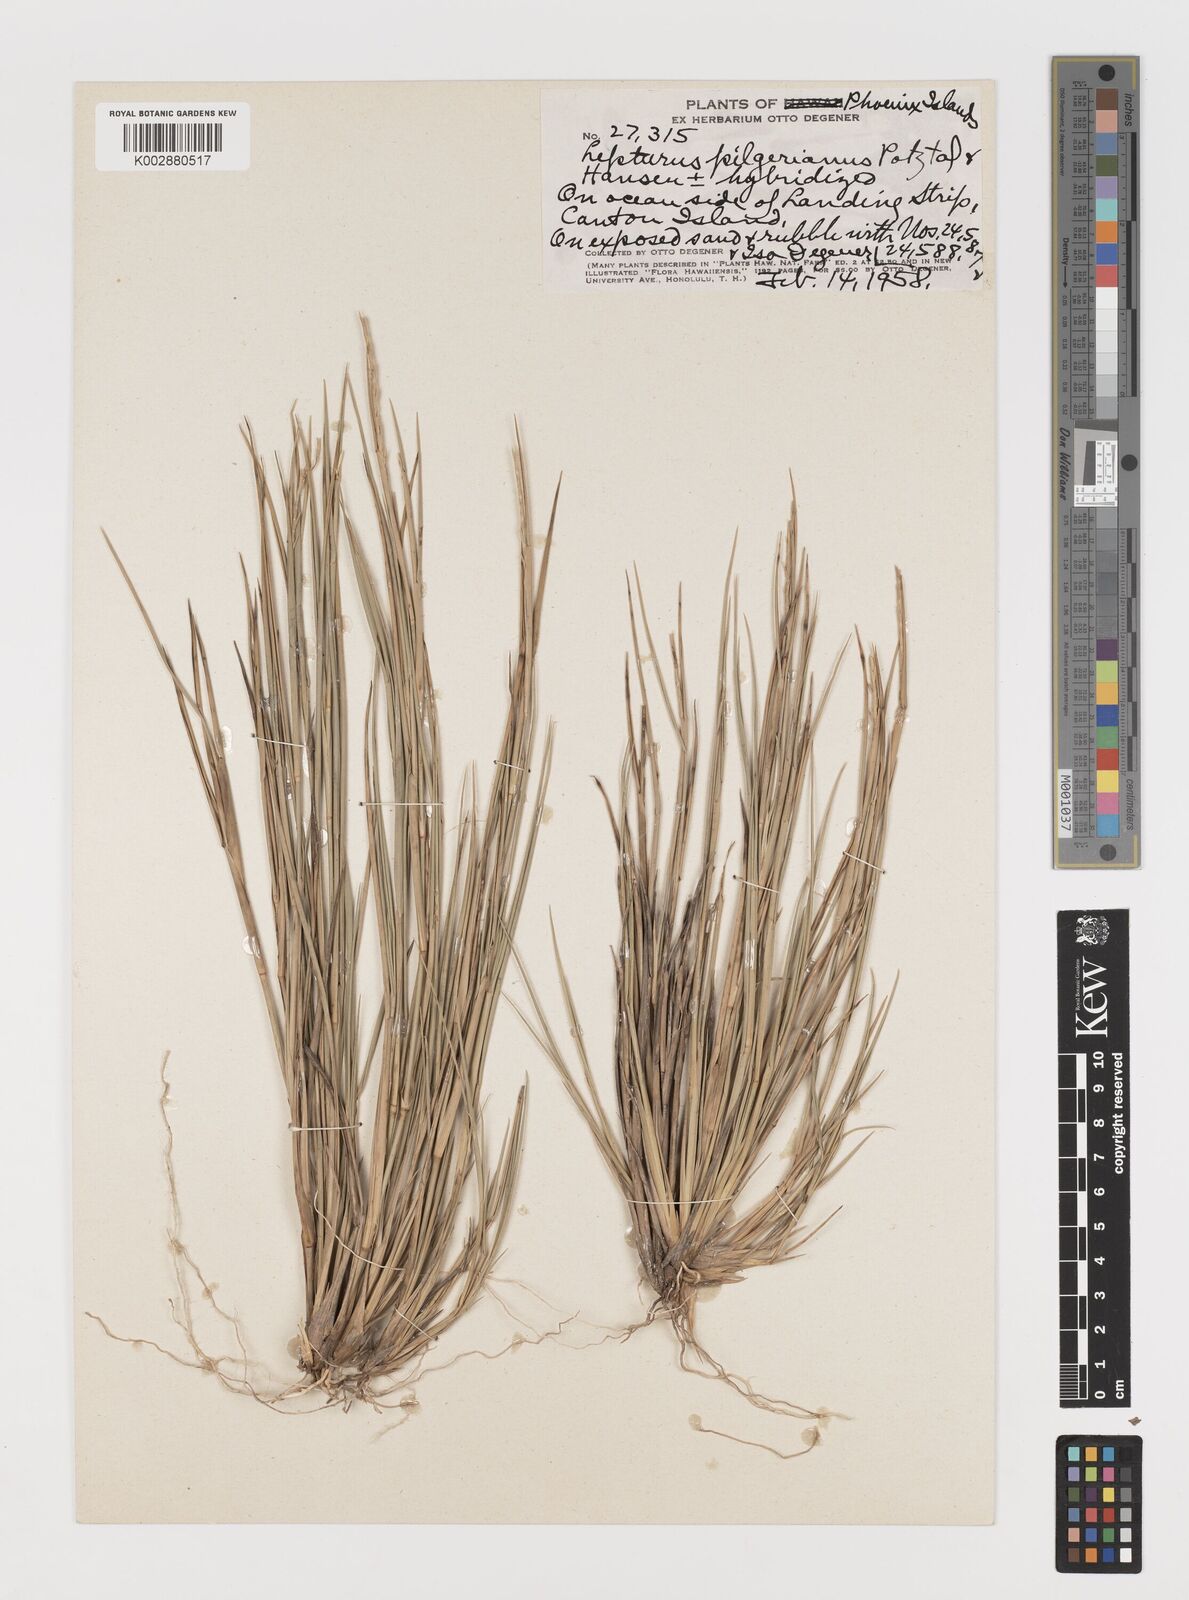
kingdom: Plantae
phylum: Tracheophyta
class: Liliopsida
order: Poales
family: Poaceae
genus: Lepturus
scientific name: Lepturus repens
